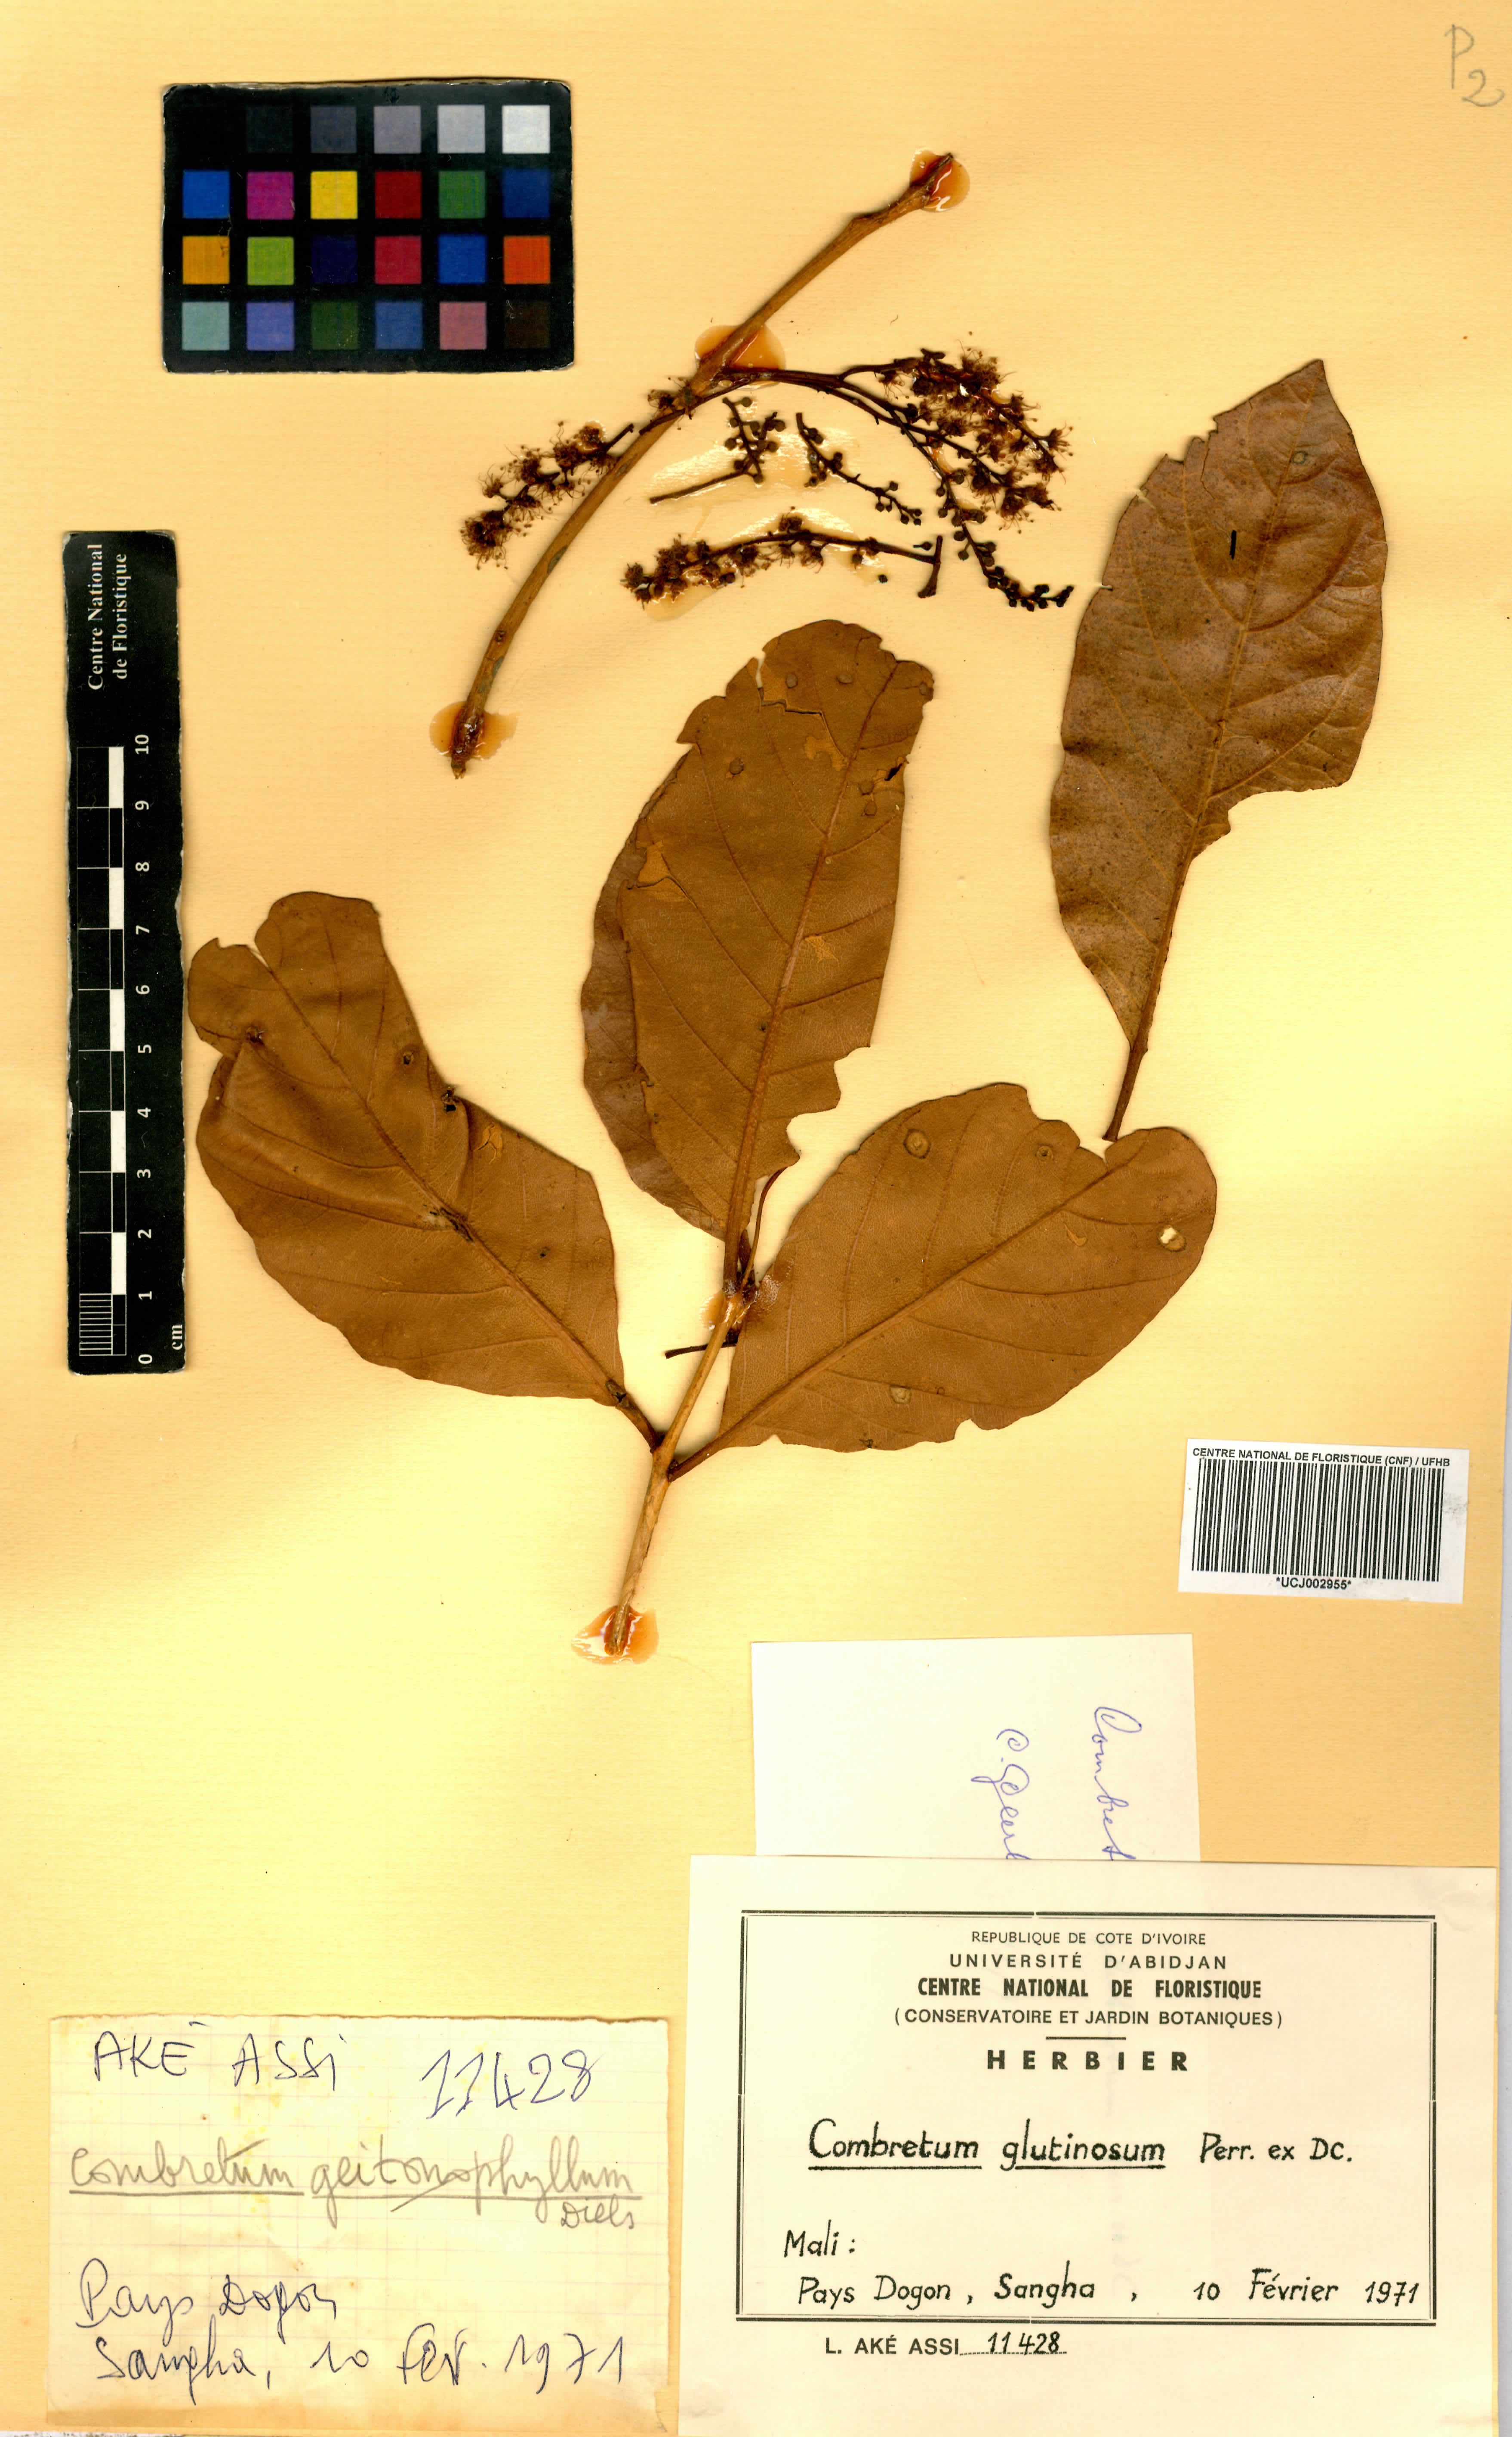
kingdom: Plantae
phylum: Tracheophyta
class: Magnoliopsida
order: Myrtales
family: Combretaceae
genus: Combretum
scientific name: Combretum glutinosum
